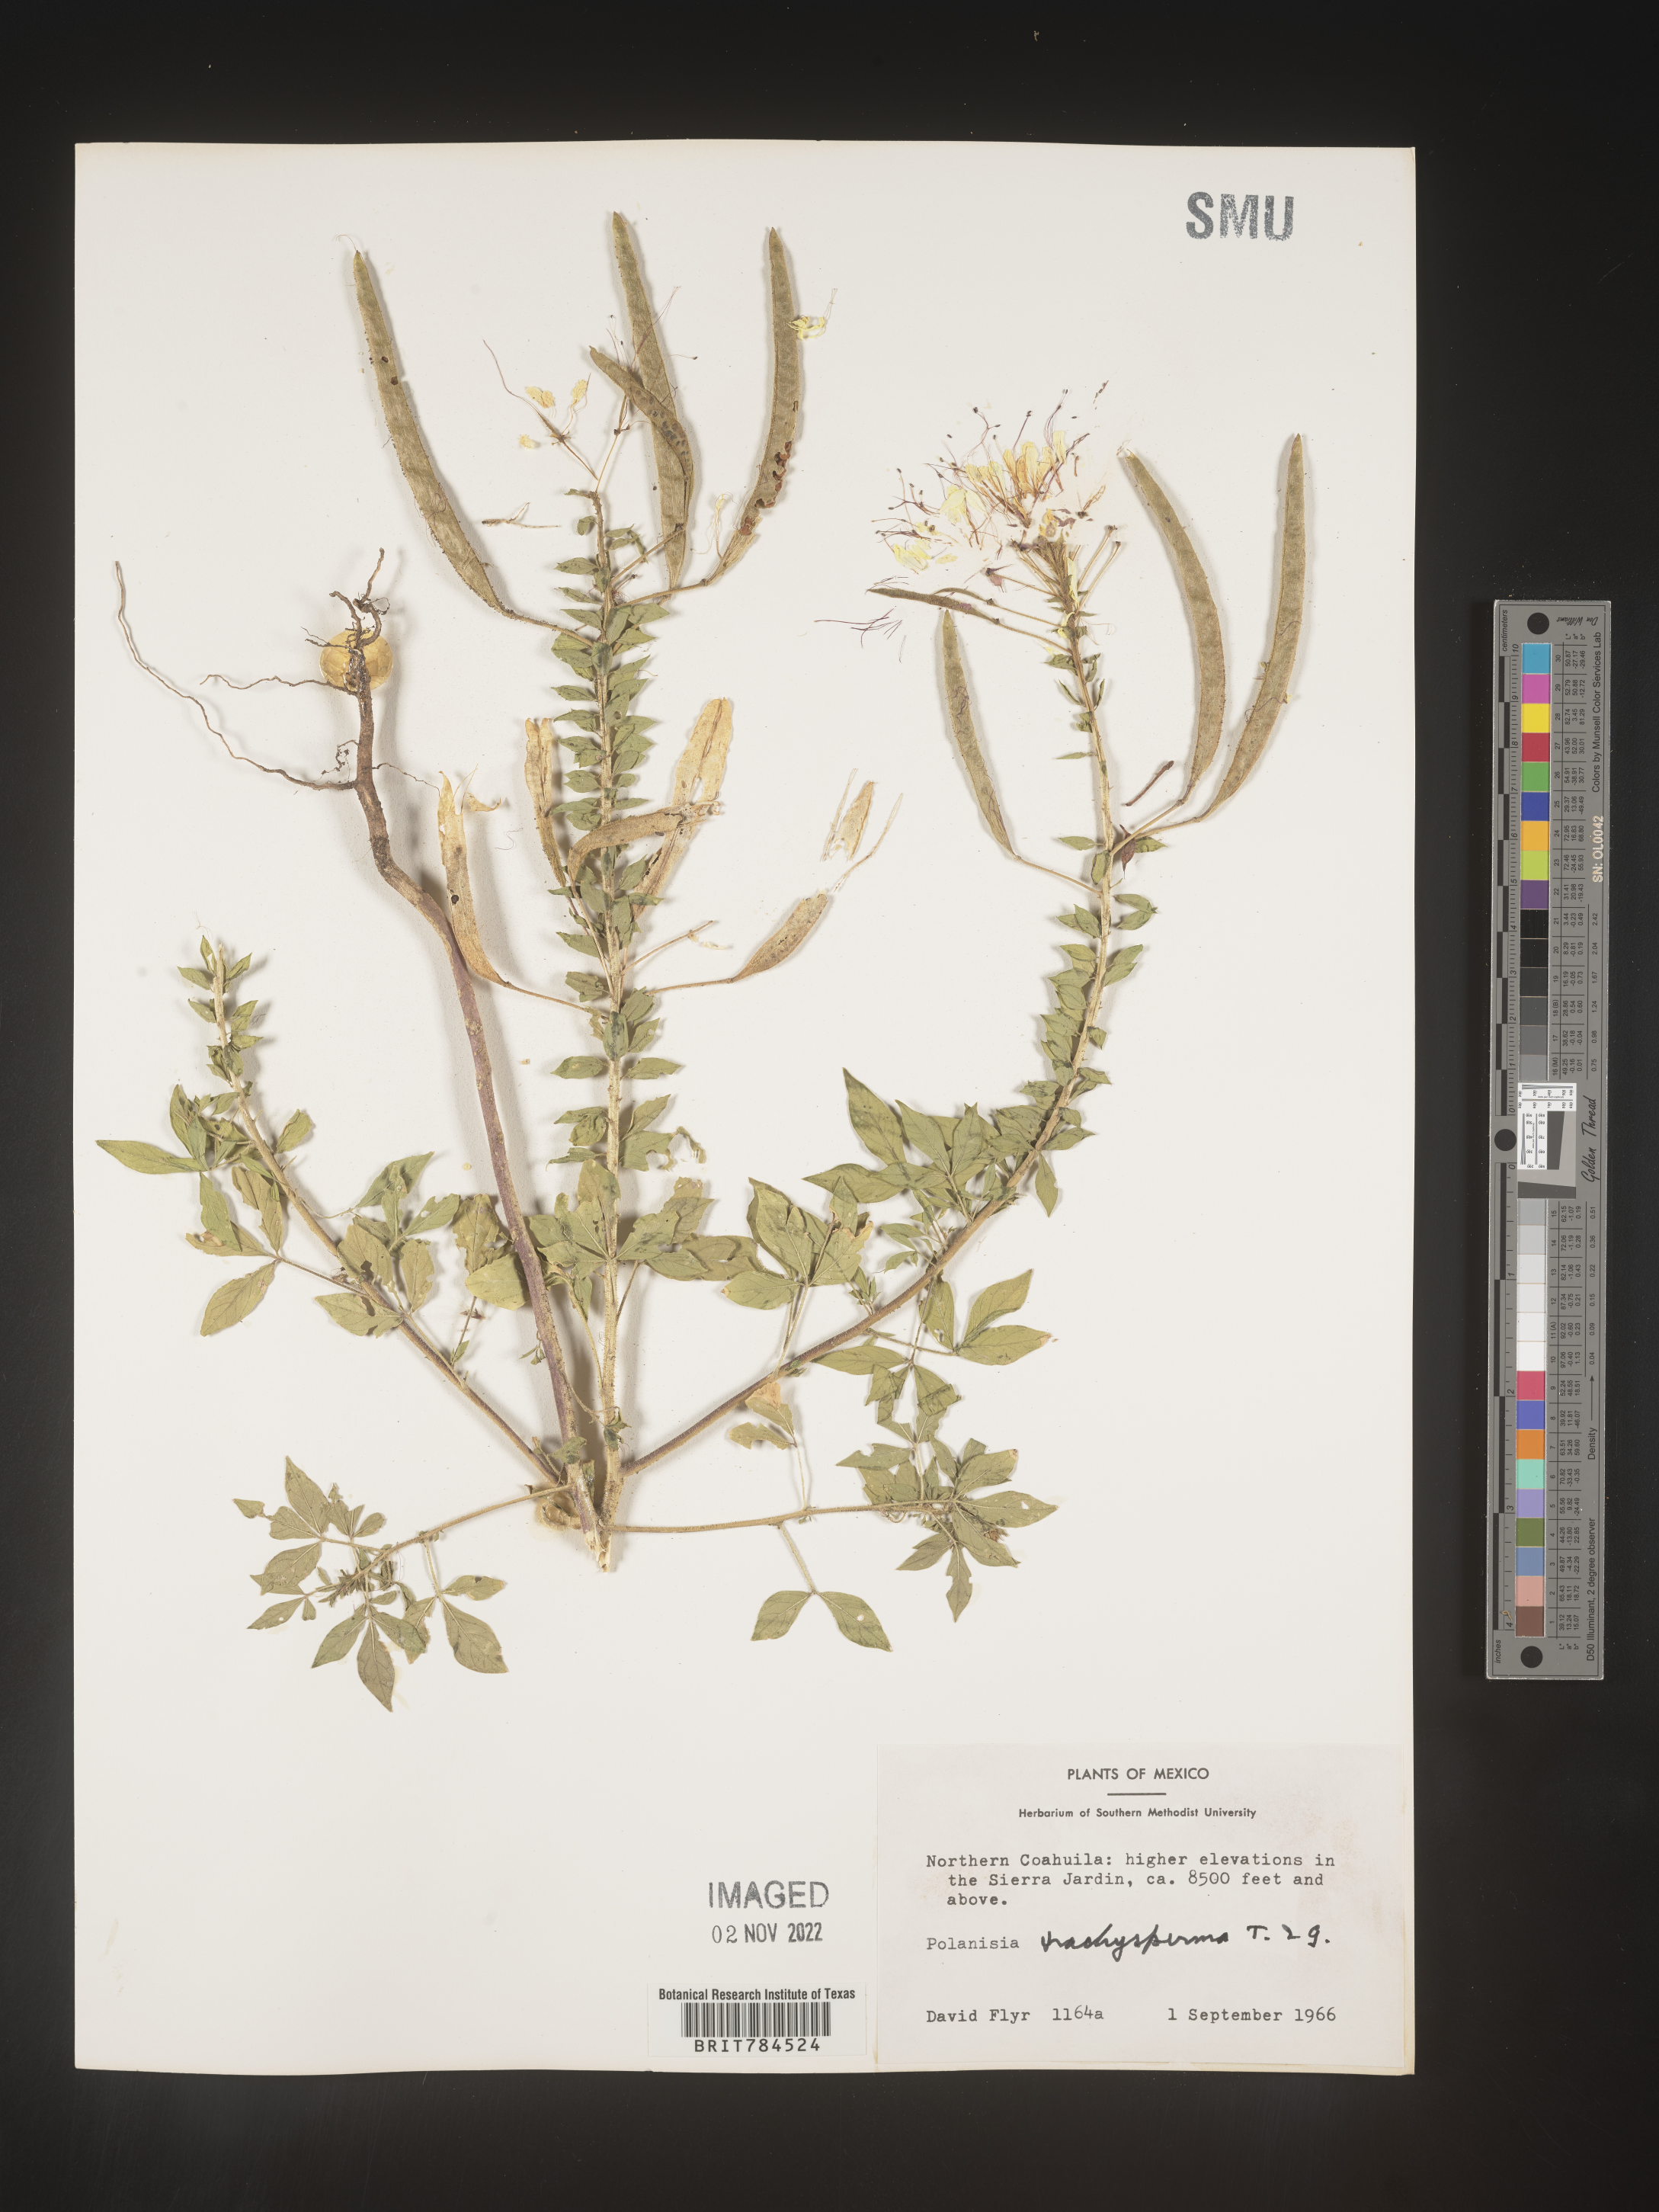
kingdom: Plantae
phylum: Tracheophyta
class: Magnoliopsida
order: Brassicales
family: Cleomaceae
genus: Polanisia
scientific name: Polanisia
